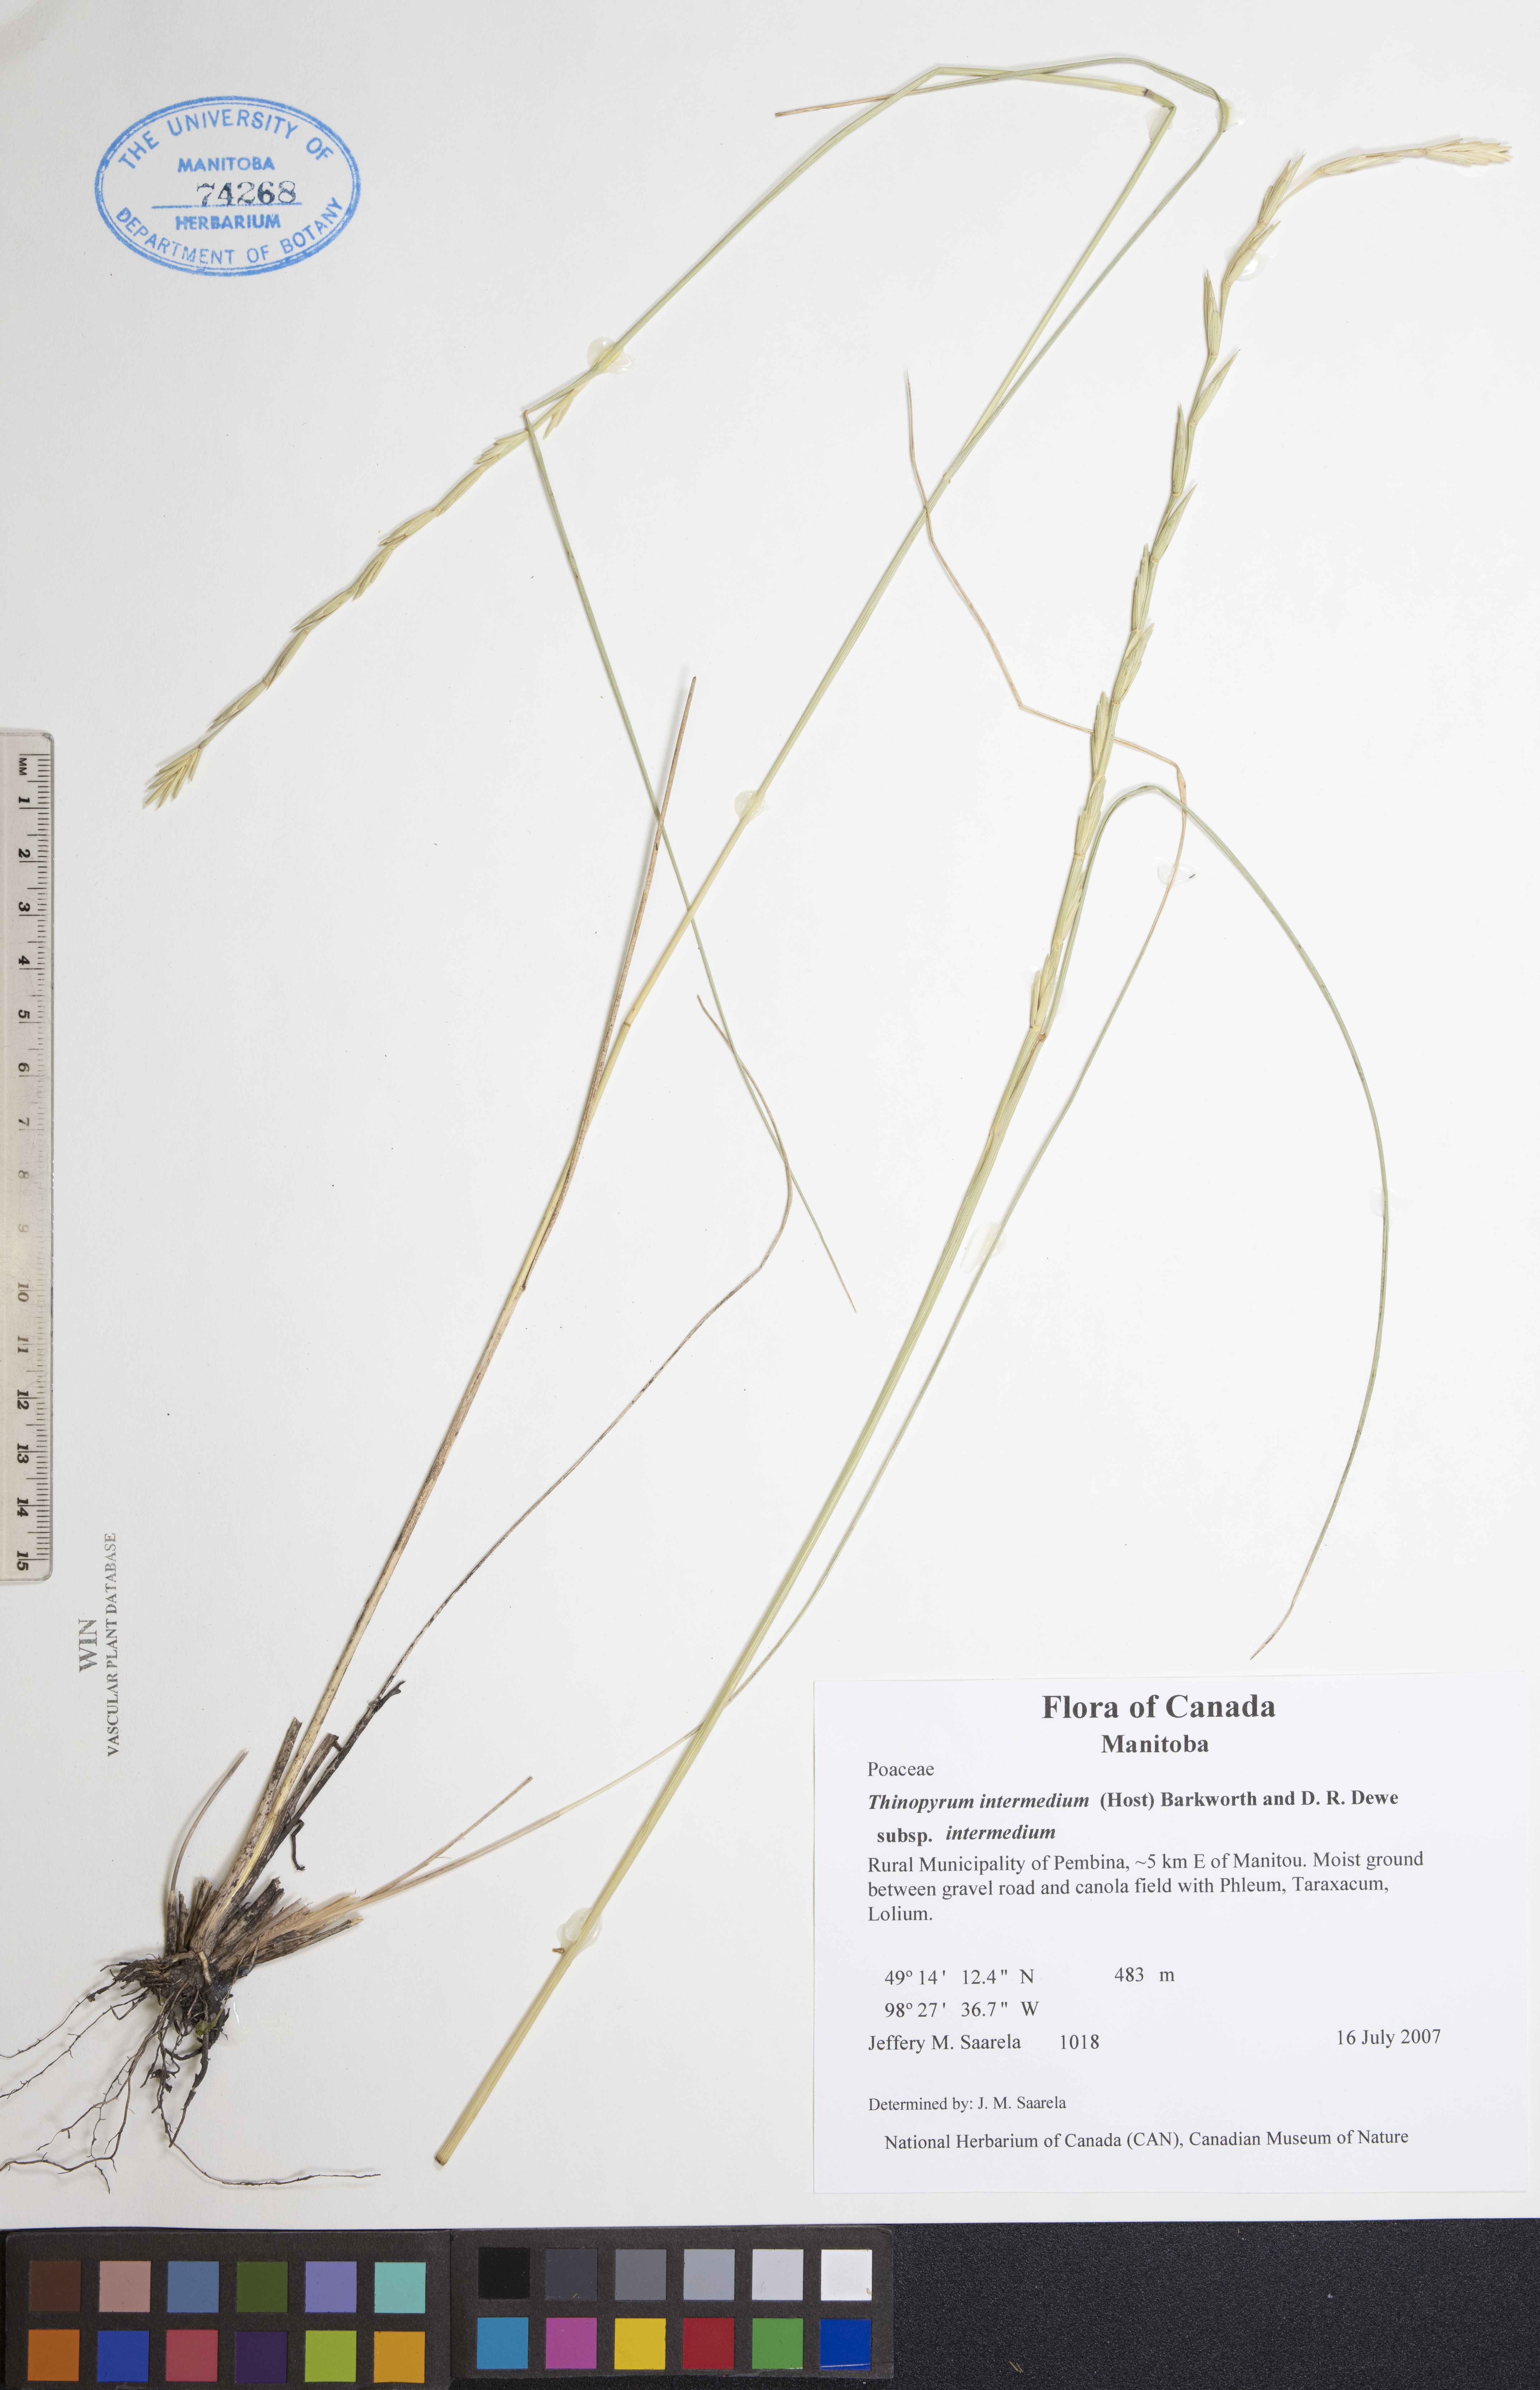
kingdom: Plantae
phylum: Tracheophyta
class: Liliopsida
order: Poales
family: Poaceae
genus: Thinopyrum
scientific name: Thinopyrum intermedium
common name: Intermediate wheatgrass
